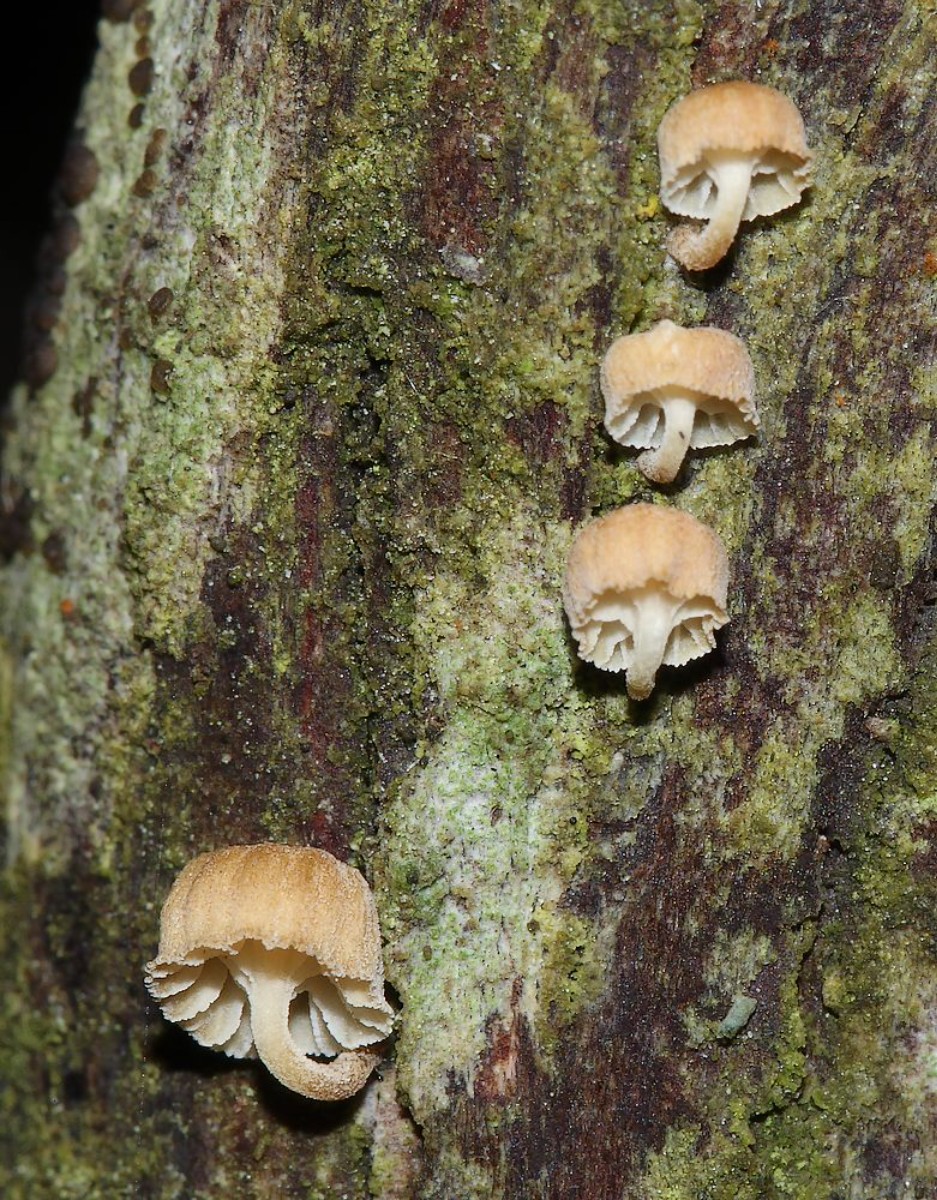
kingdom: Fungi
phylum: Basidiomycota
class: Agaricomycetes
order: Agaricales
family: Mycenaceae
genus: Mycena
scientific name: Mycena juniperina
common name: ene-Huesvamp
